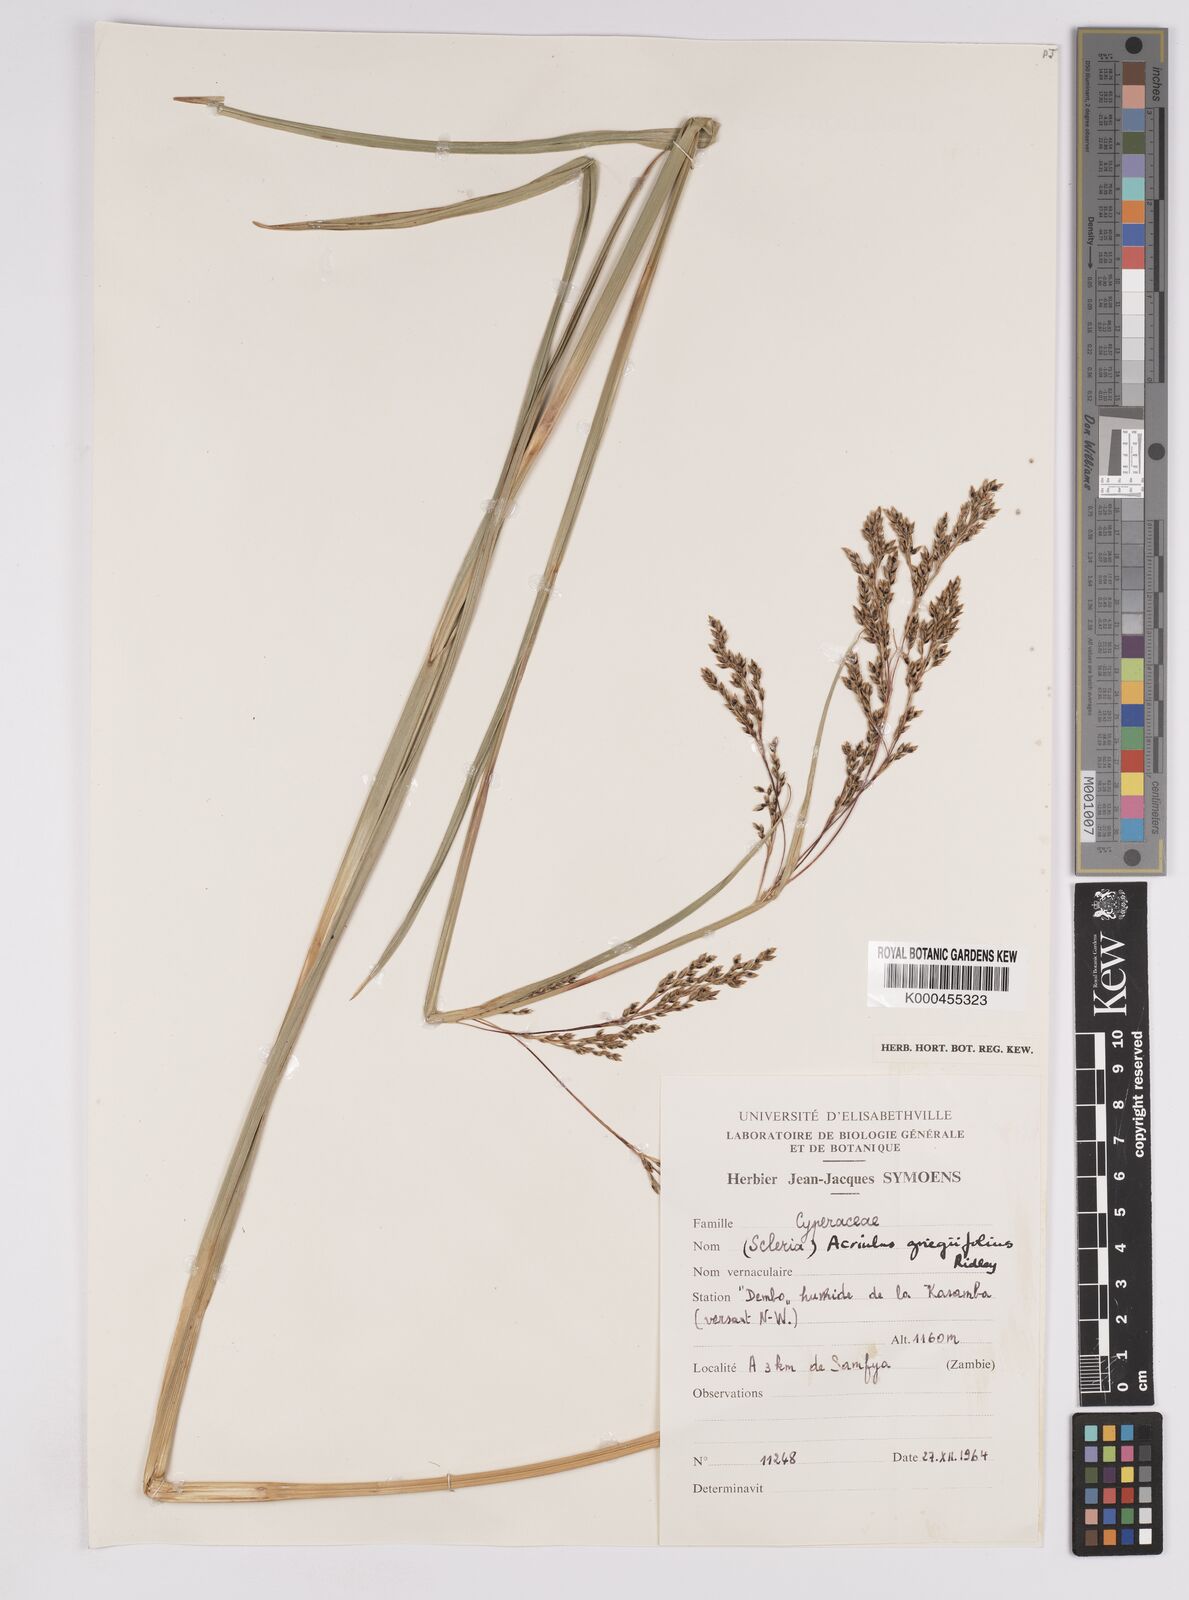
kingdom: Plantae
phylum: Tracheophyta
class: Liliopsida
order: Poales
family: Cyperaceae
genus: Scleria
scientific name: Scleria greigiifolia
